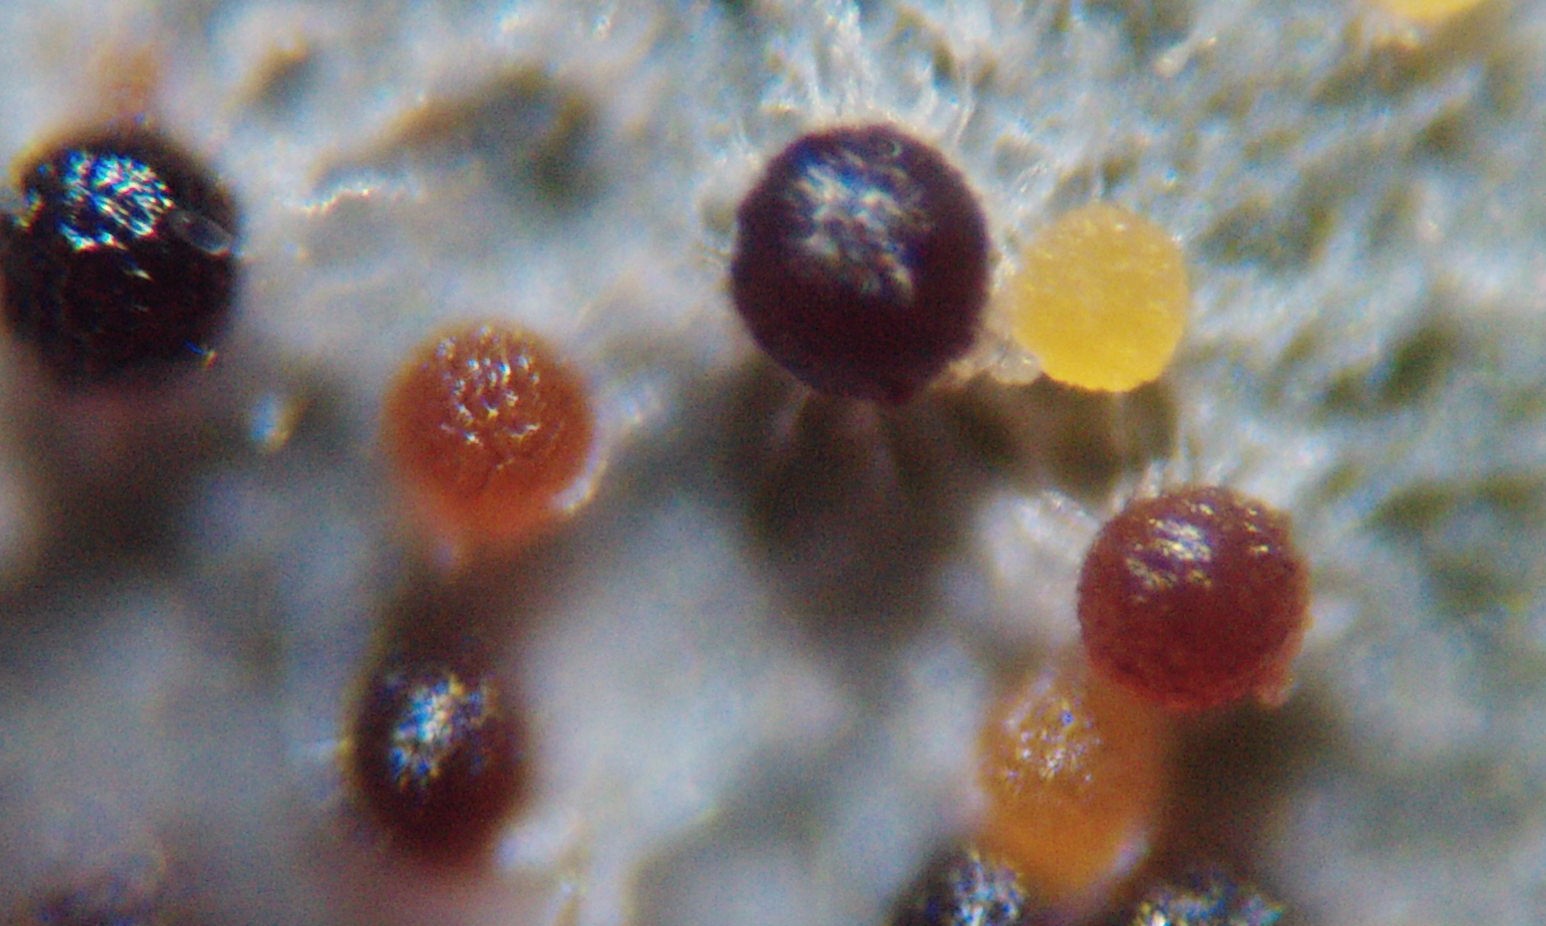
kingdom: Fungi
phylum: Ascomycota
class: Leotiomycetes
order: Helotiales
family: Erysiphaceae
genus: Erysiphe
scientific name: Erysiphe heraclei
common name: skærmplante-meldug
